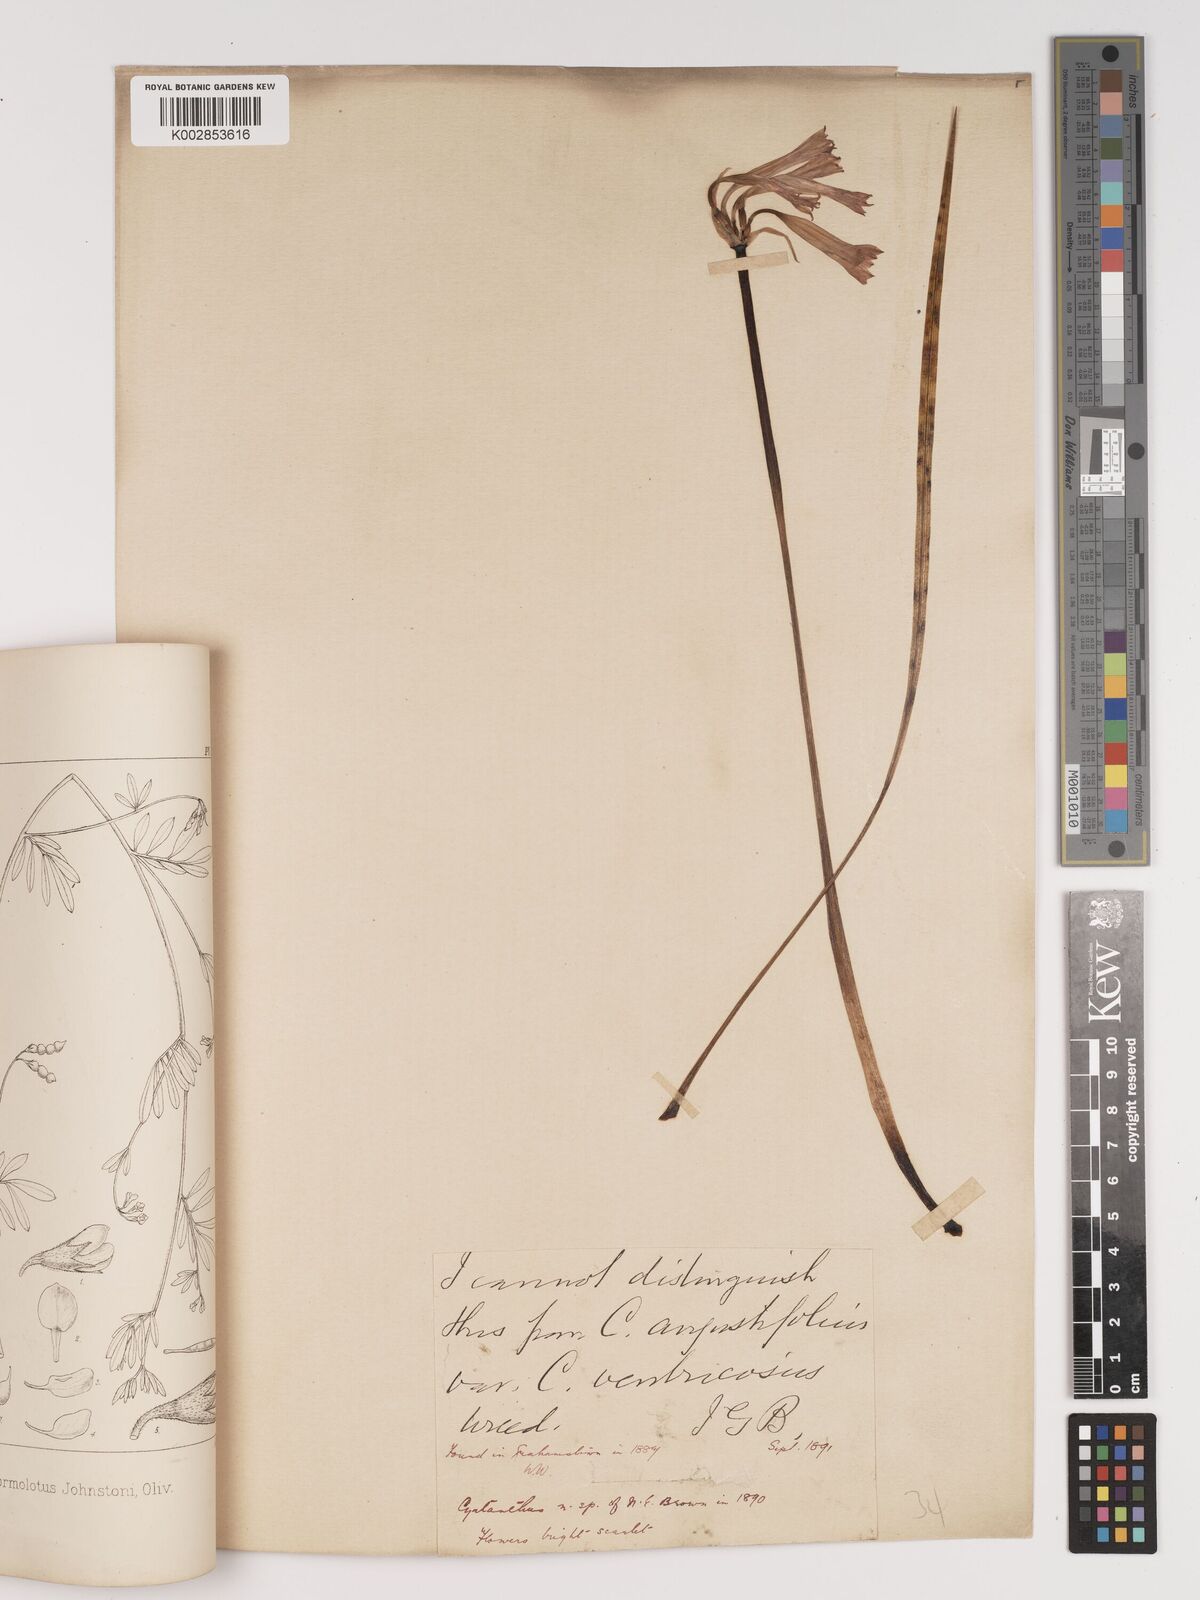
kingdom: Plantae
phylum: Tracheophyta
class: Liliopsida
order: Asparagales
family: Amaryllidaceae
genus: Cyrtanthus
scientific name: Cyrtanthus
